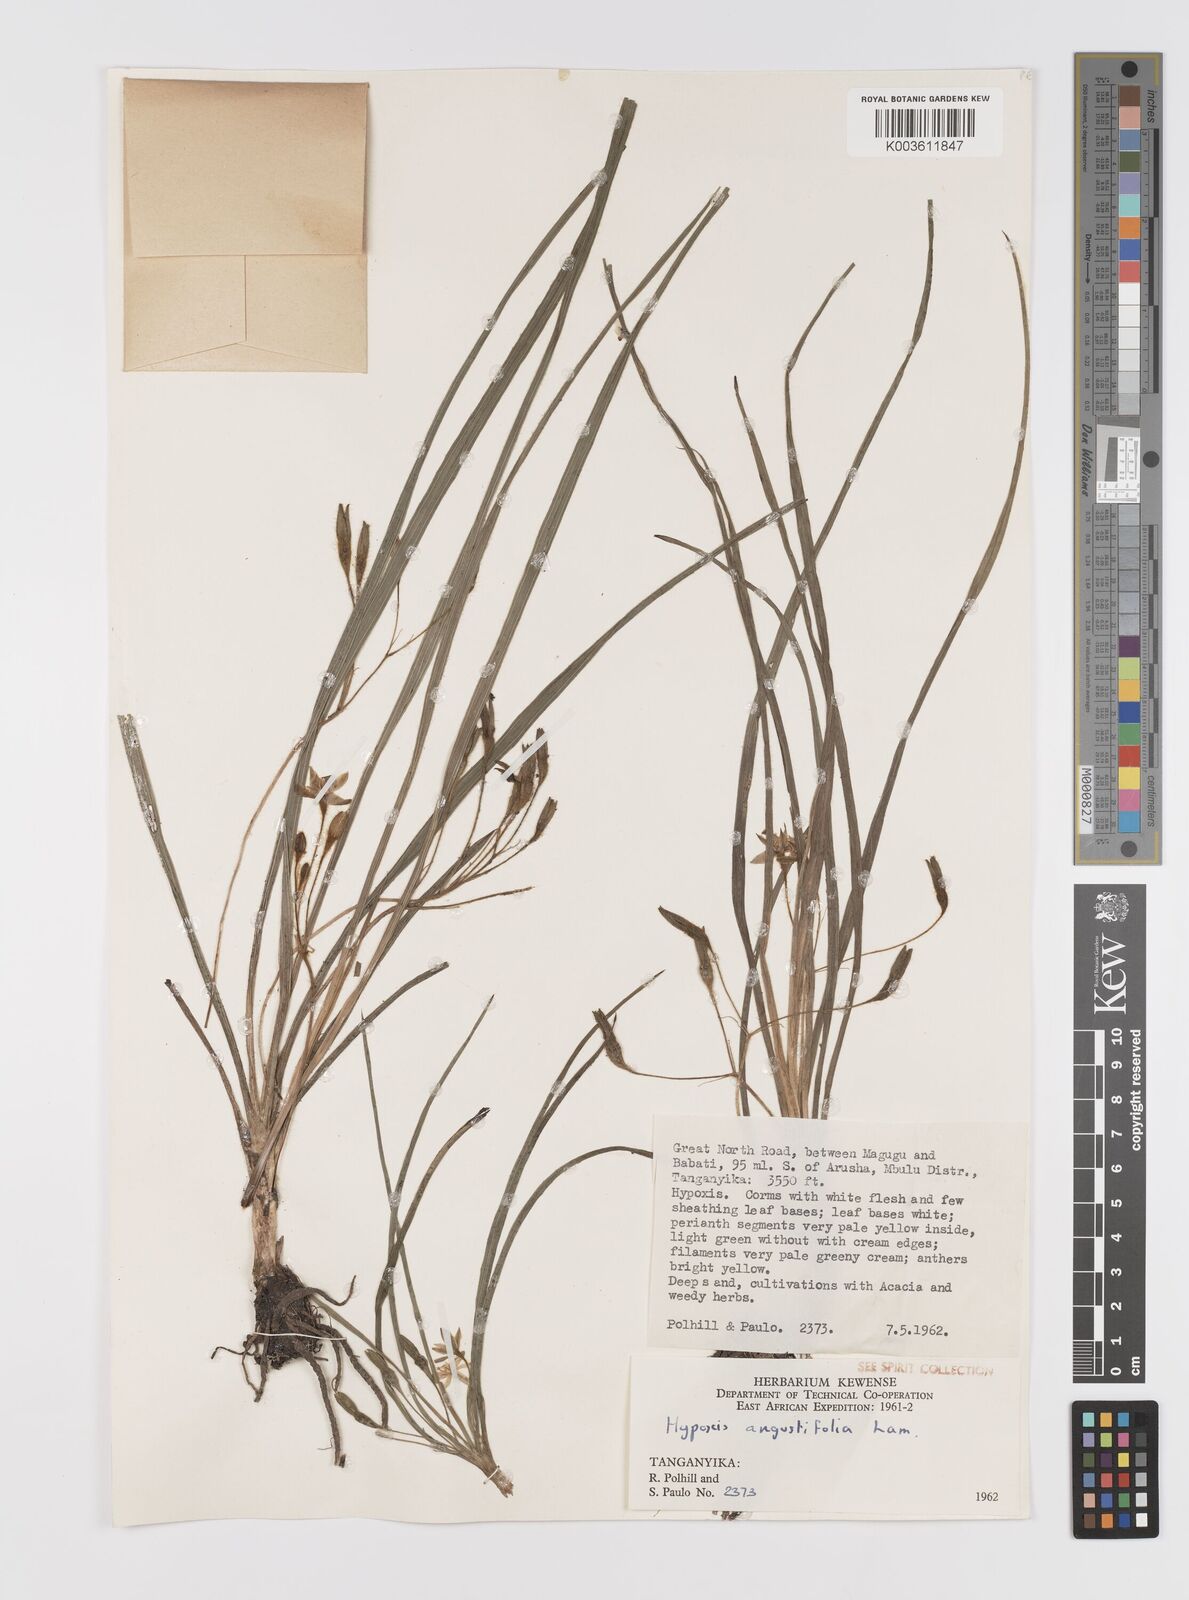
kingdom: Plantae
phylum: Tracheophyta
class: Liliopsida
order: Asparagales
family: Hypoxidaceae
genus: Hypoxis
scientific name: Hypoxis angustifolia
